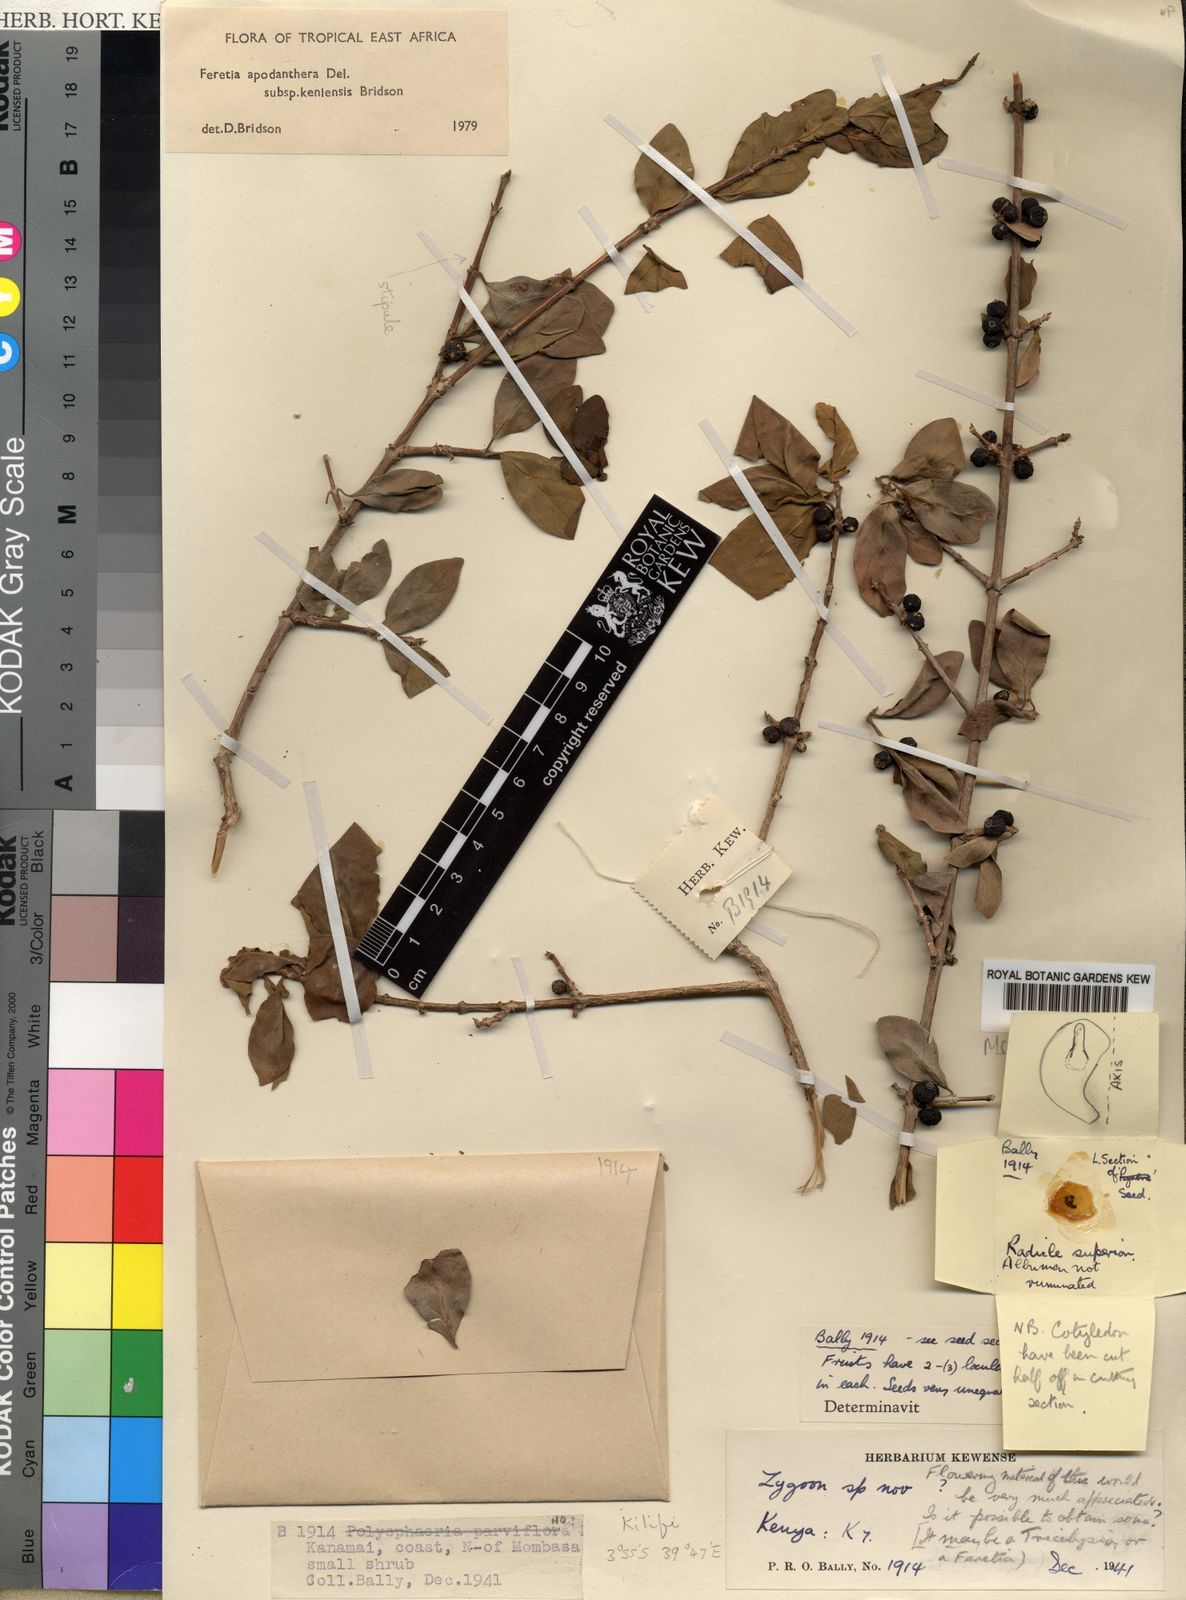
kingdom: Plantae
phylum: Tracheophyta
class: Magnoliopsida
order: Gentianales
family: Rubiaceae
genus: Feretia
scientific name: Feretia apodanthera
